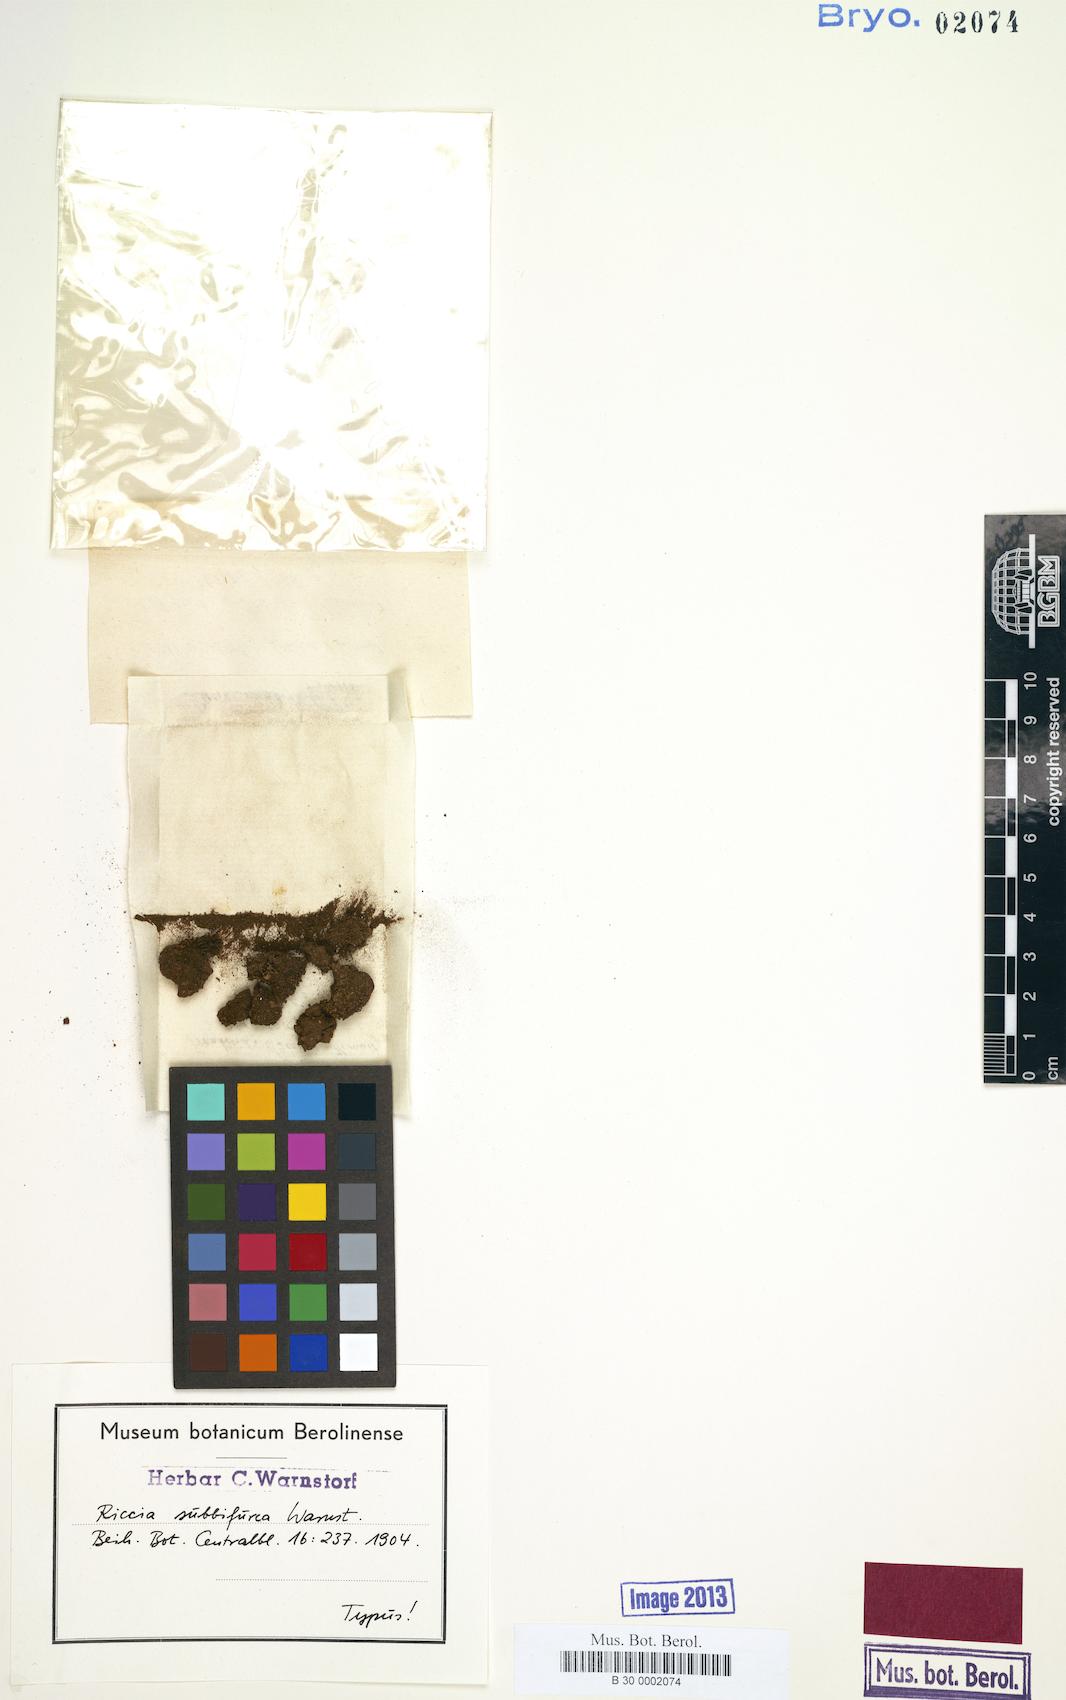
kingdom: Plantae
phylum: Marchantiophyta
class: Marchantiopsida
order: Marchantiales
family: Ricciaceae
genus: Riccia
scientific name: Riccia subbifurca
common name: Least crystalwort
